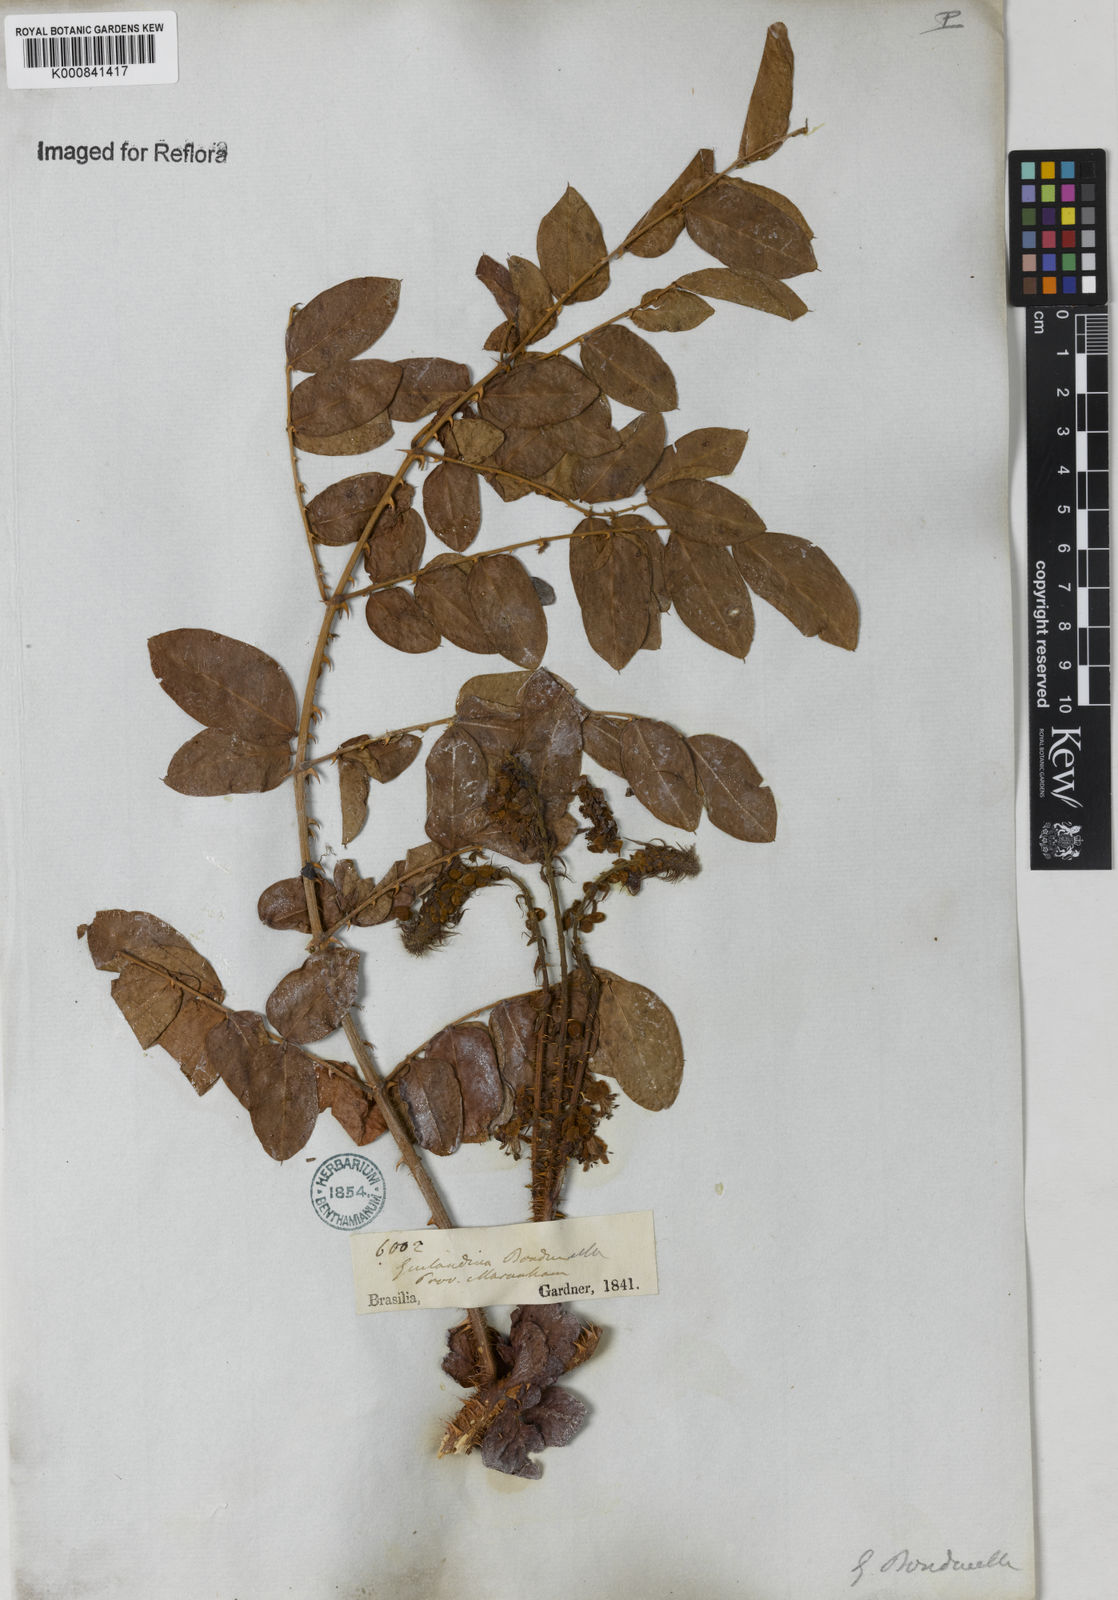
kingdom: Plantae
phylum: Tracheophyta
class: Magnoliopsida
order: Fabales
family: Fabaceae
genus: Guilandina
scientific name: Guilandina bonduc
